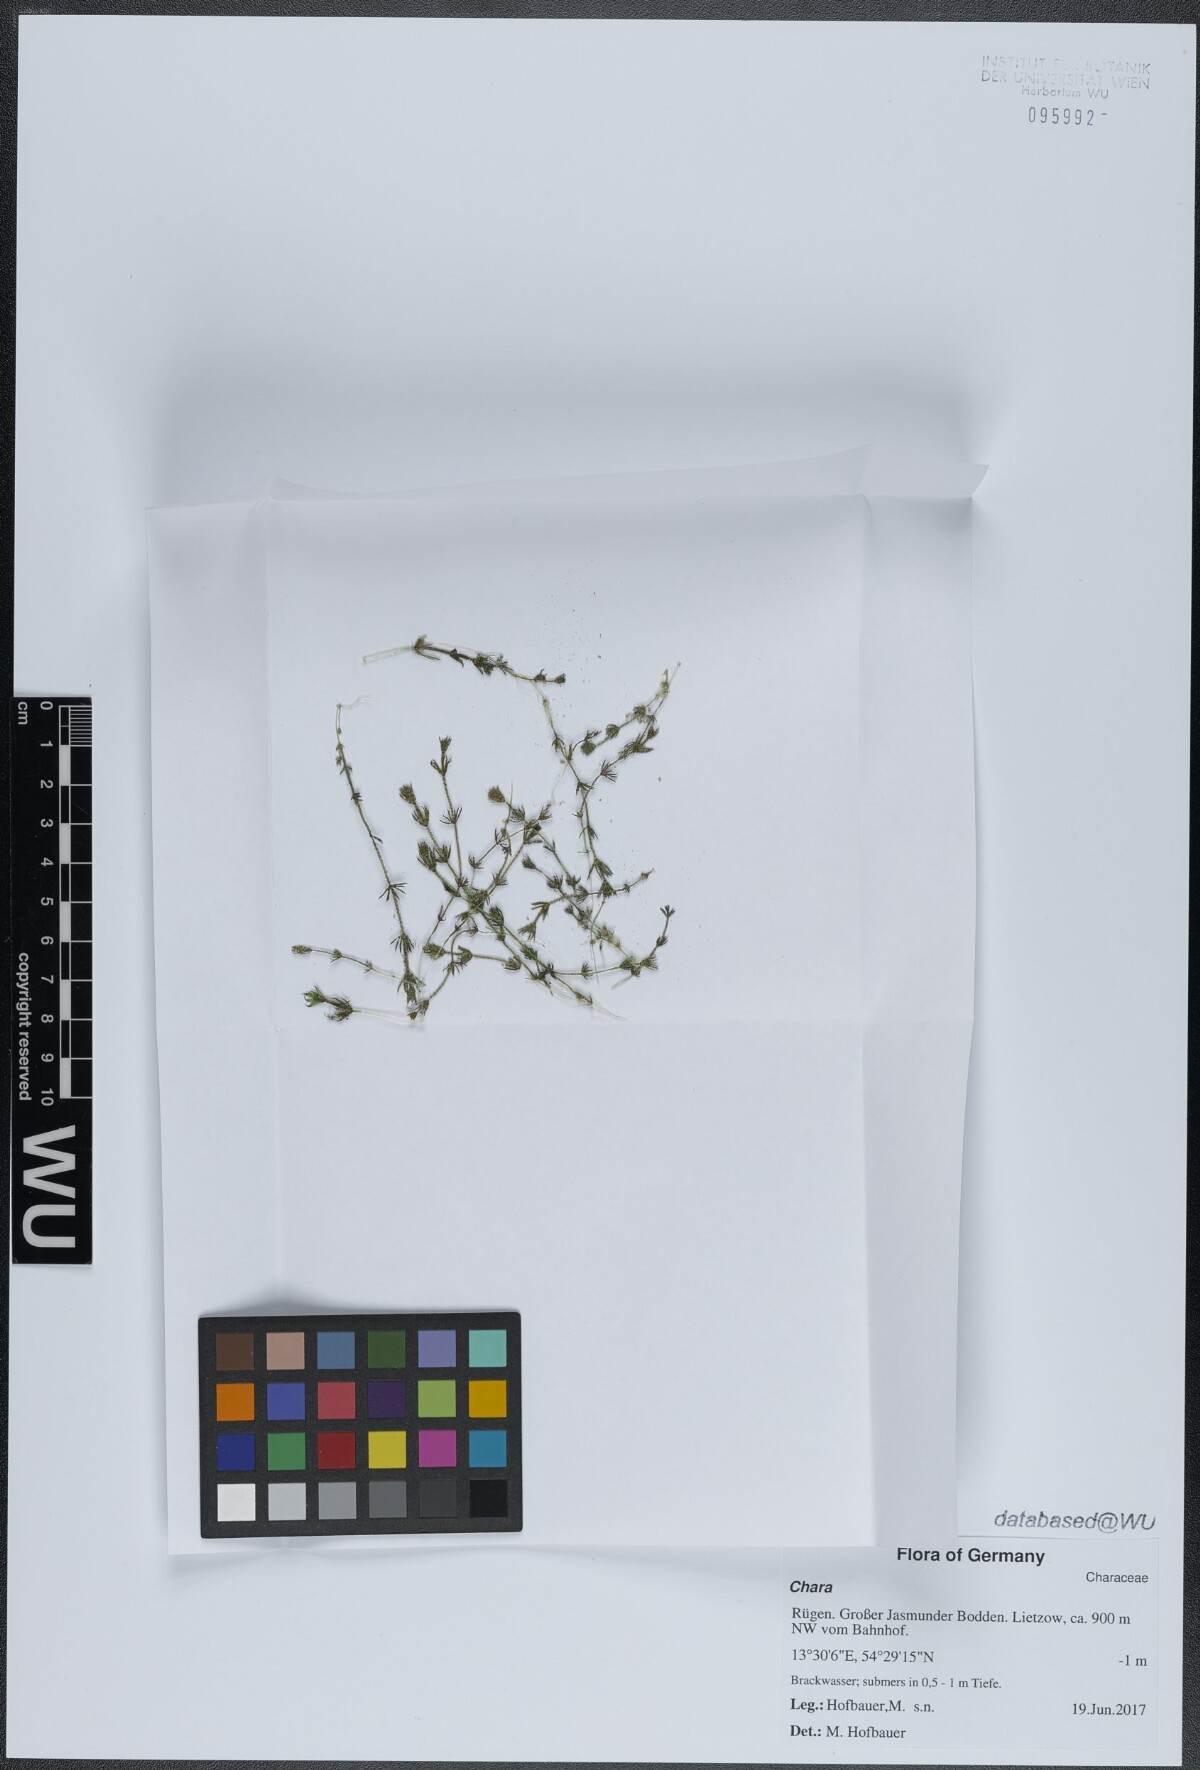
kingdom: Plantae
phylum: Charophyta
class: Charophyceae
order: Charales
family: Characeae
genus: Chara
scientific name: Chara
